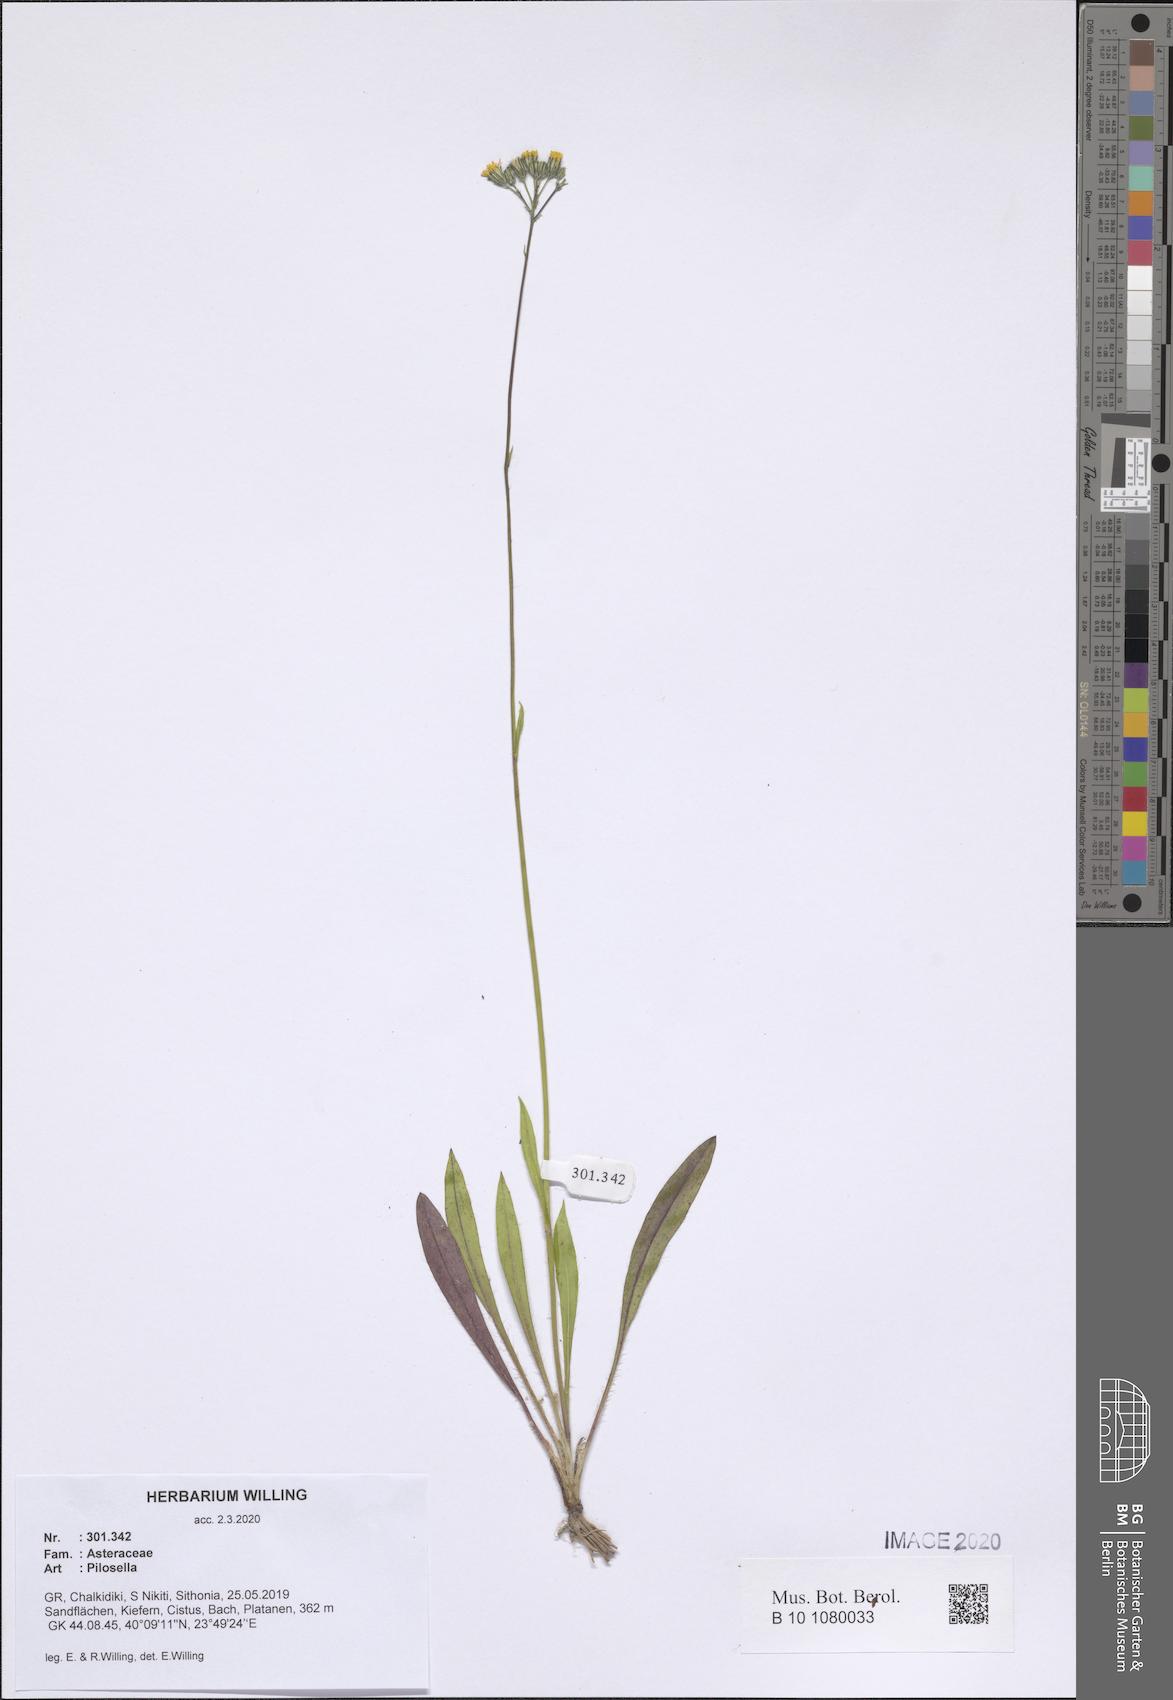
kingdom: Plantae
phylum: Tracheophyta
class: Magnoliopsida
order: Asterales
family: Asteraceae
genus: Pilosella
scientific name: Pilosella
